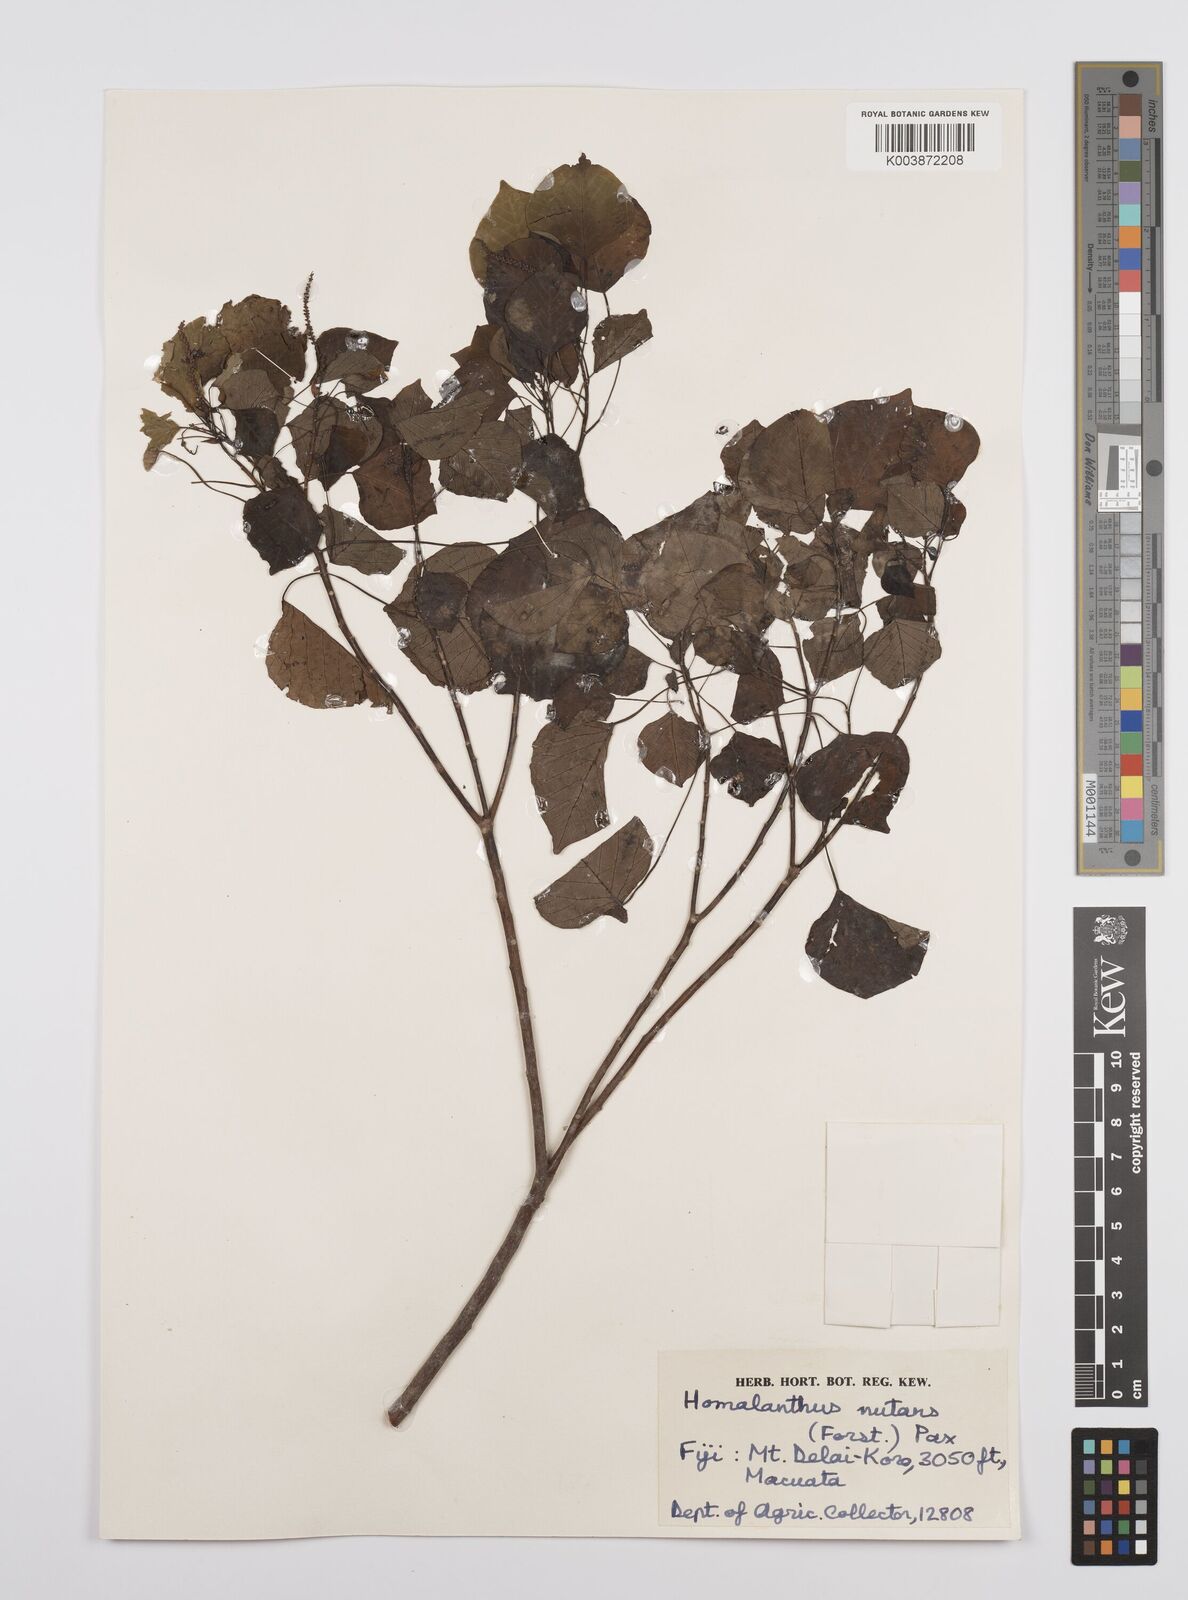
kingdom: Plantae
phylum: Tracheophyta
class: Magnoliopsida
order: Malpighiales
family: Euphorbiaceae
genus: Homalanthus
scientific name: Homalanthus nutans
